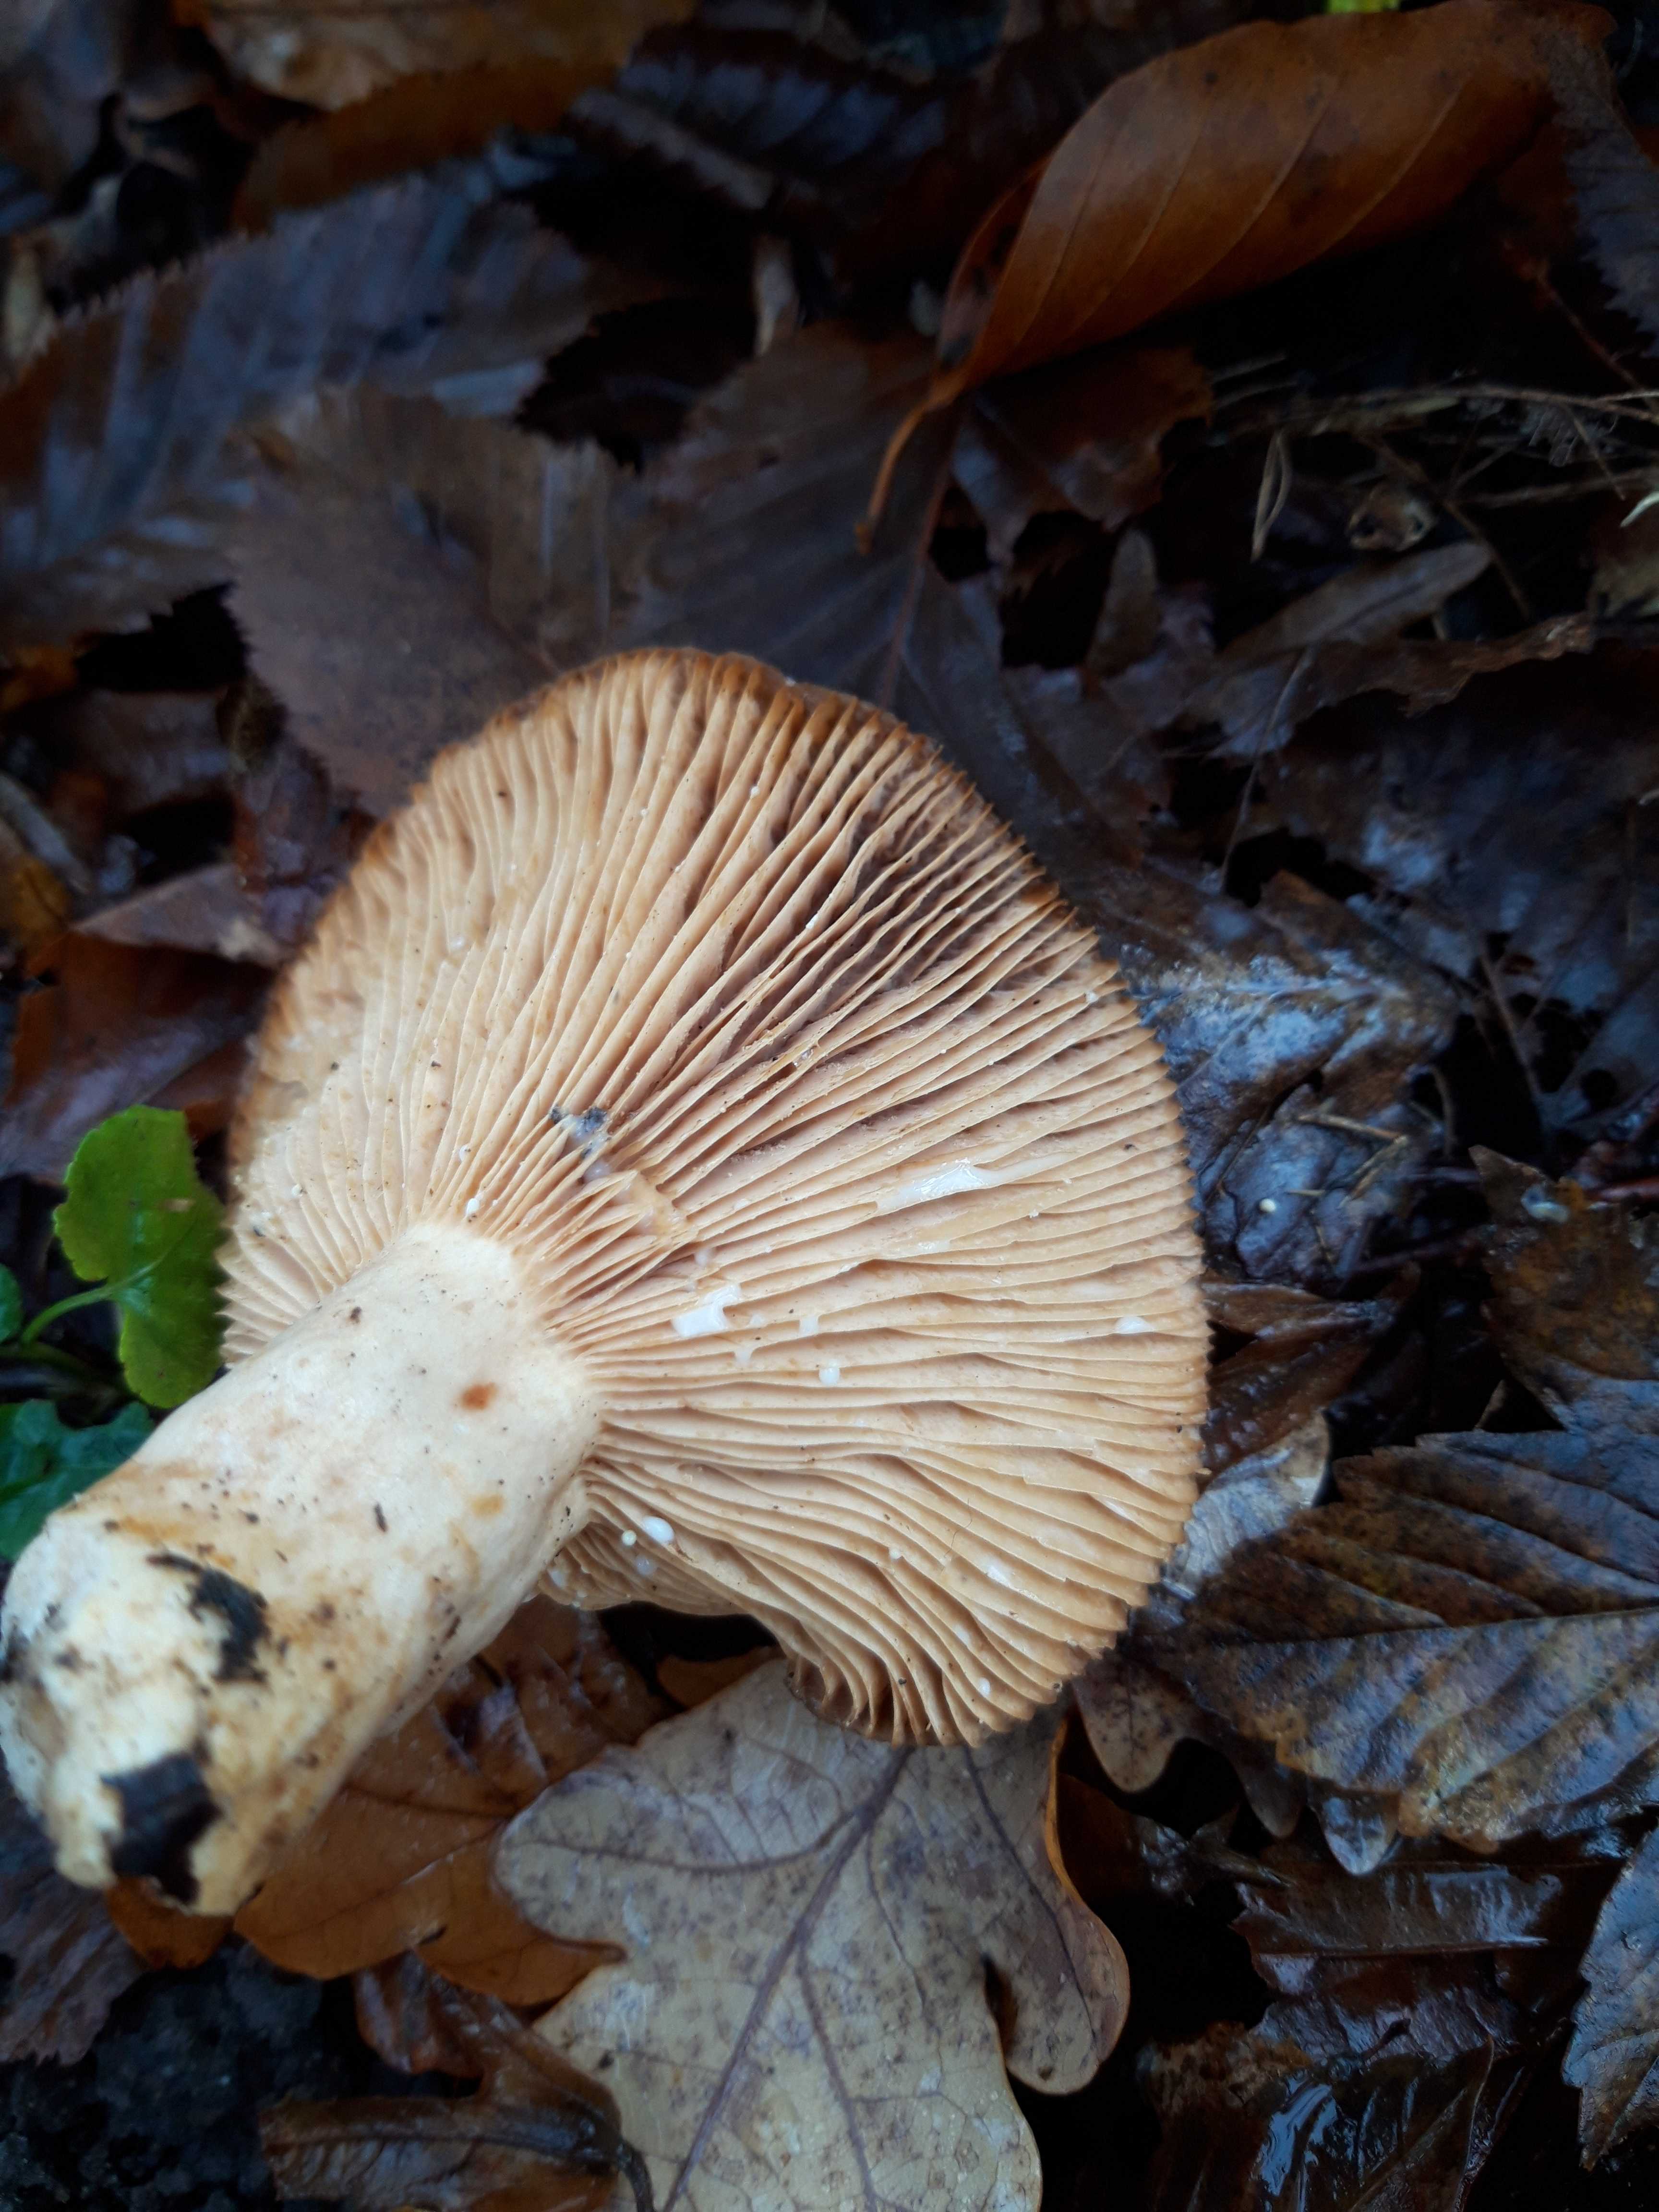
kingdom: Fungi
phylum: Basidiomycota
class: Agaricomycetes
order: Russulales
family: Russulaceae
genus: Lactarius
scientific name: Lactarius circellatus
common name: avnbøg-mælkehat
